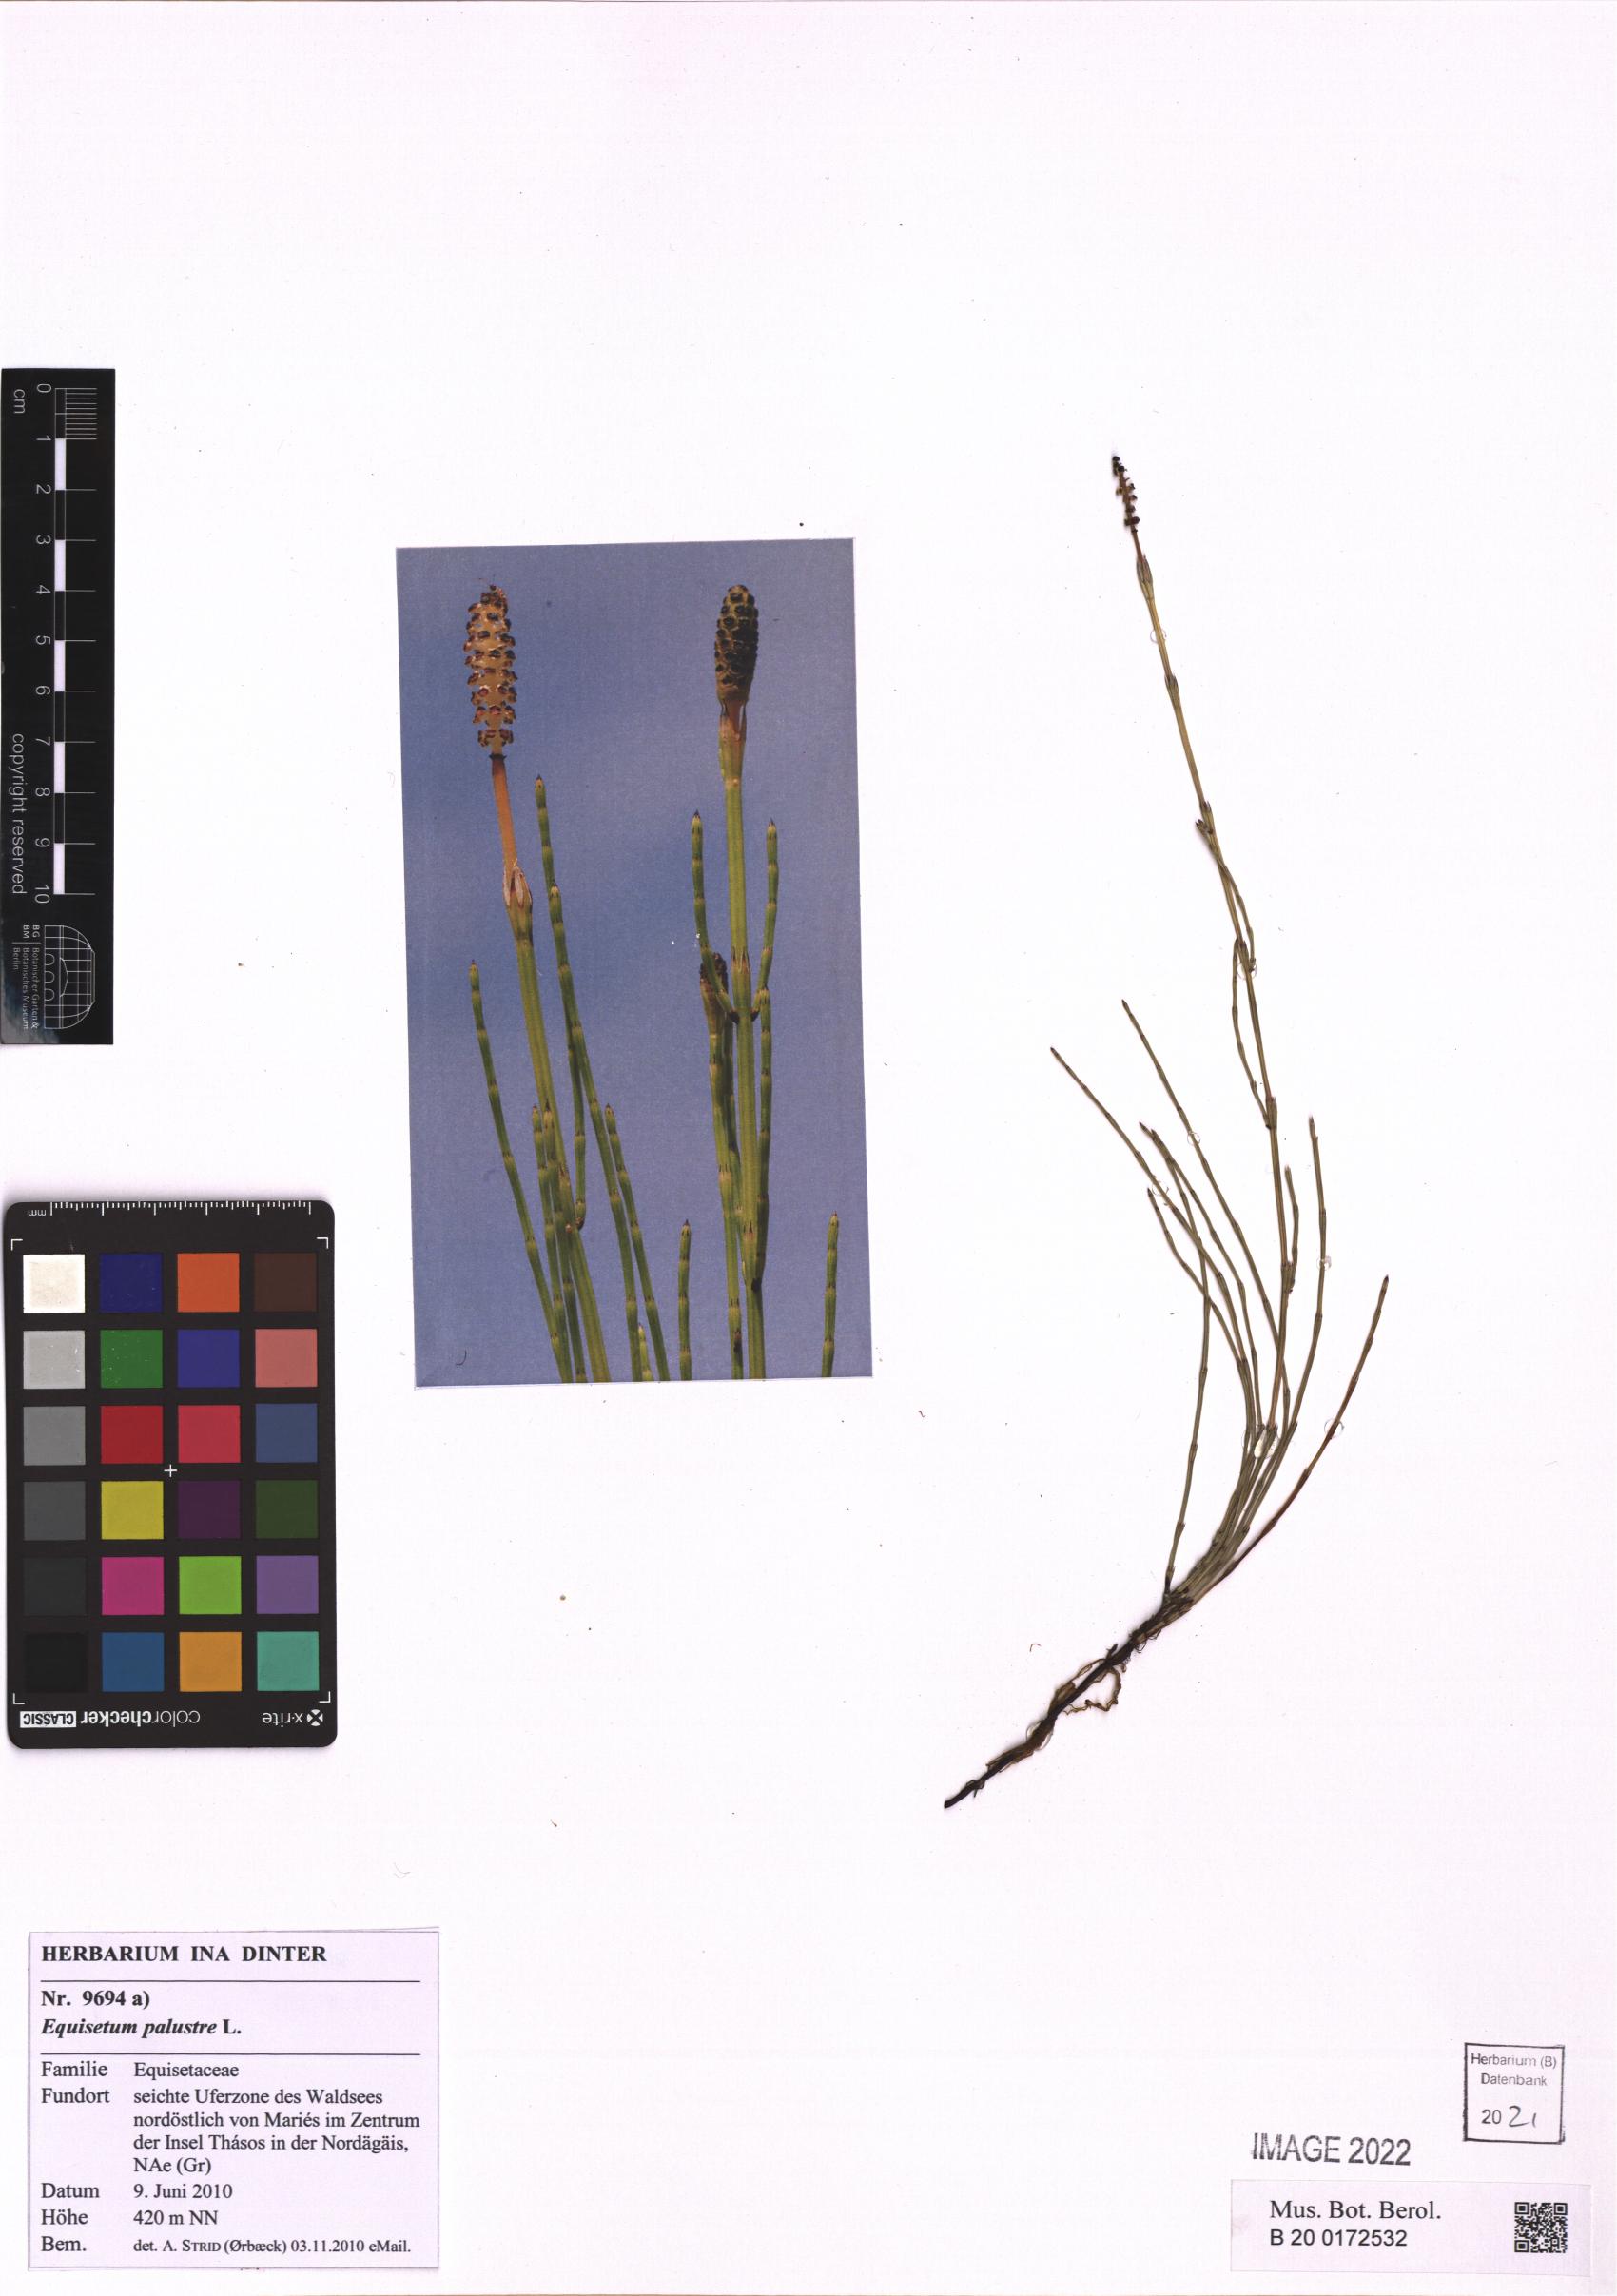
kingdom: Plantae
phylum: Tracheophyta
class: Polypodiopsida
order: Equisetales
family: Equisetaceae
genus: Equisetum
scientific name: Equisetum palustre
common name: Marsh horsetail
